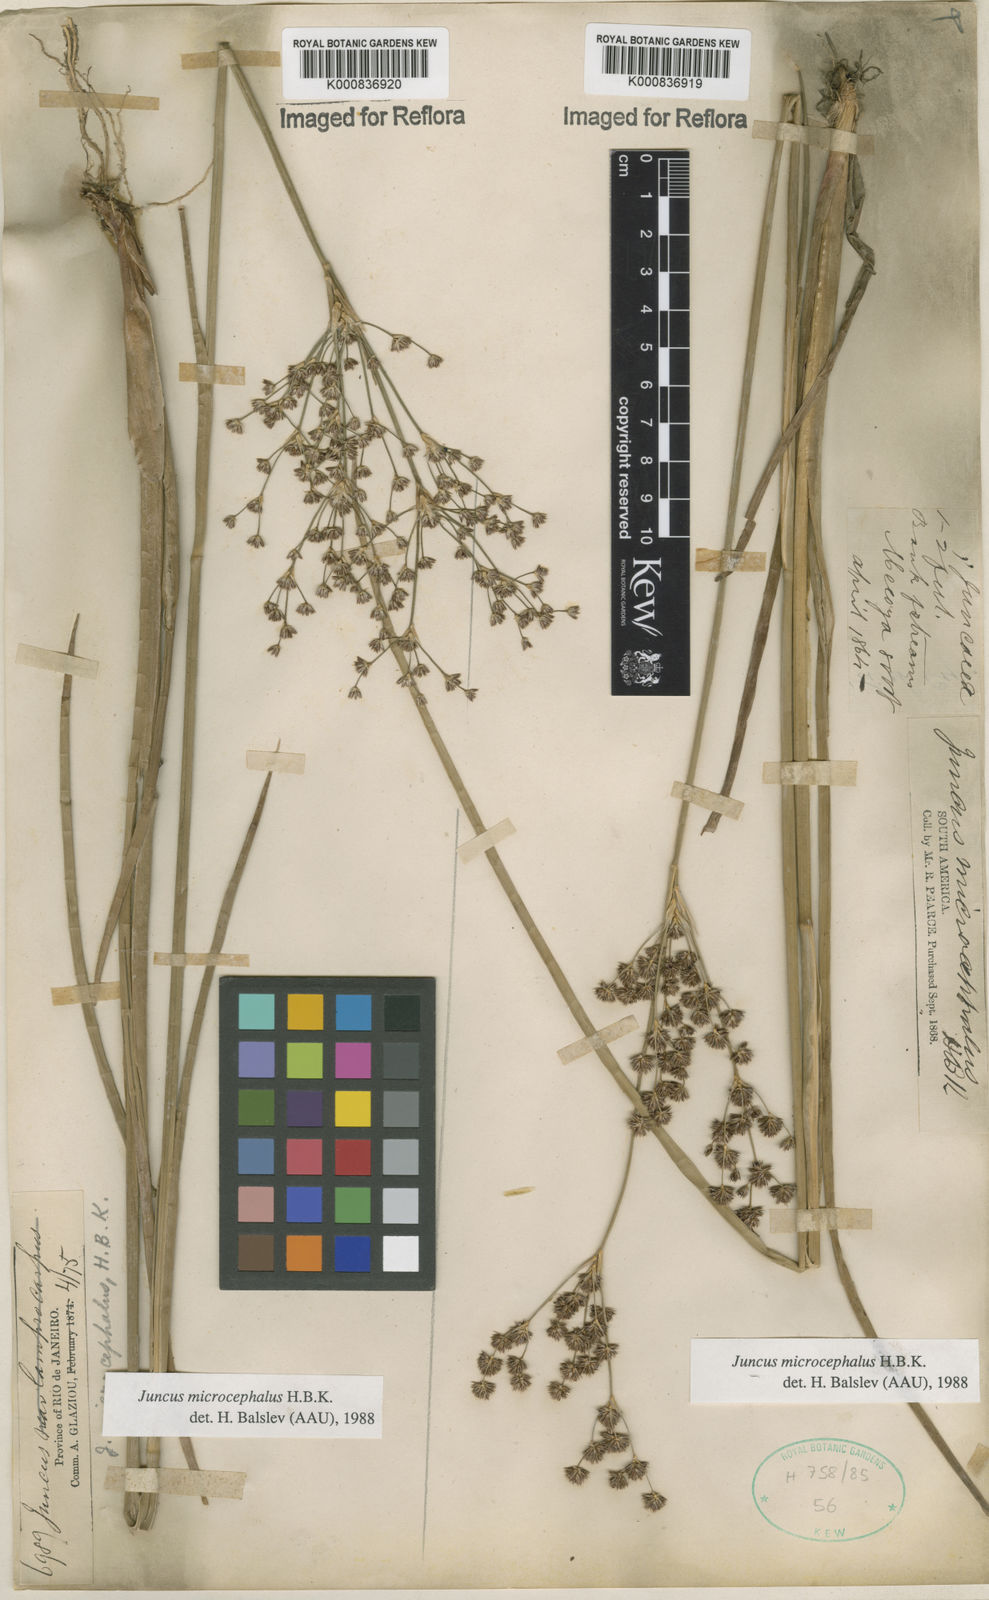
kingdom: Plantae
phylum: Tracheophyta
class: Liliopsida
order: Poales
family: Juncaceae
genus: Juncus
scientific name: Juncus microcephalus
